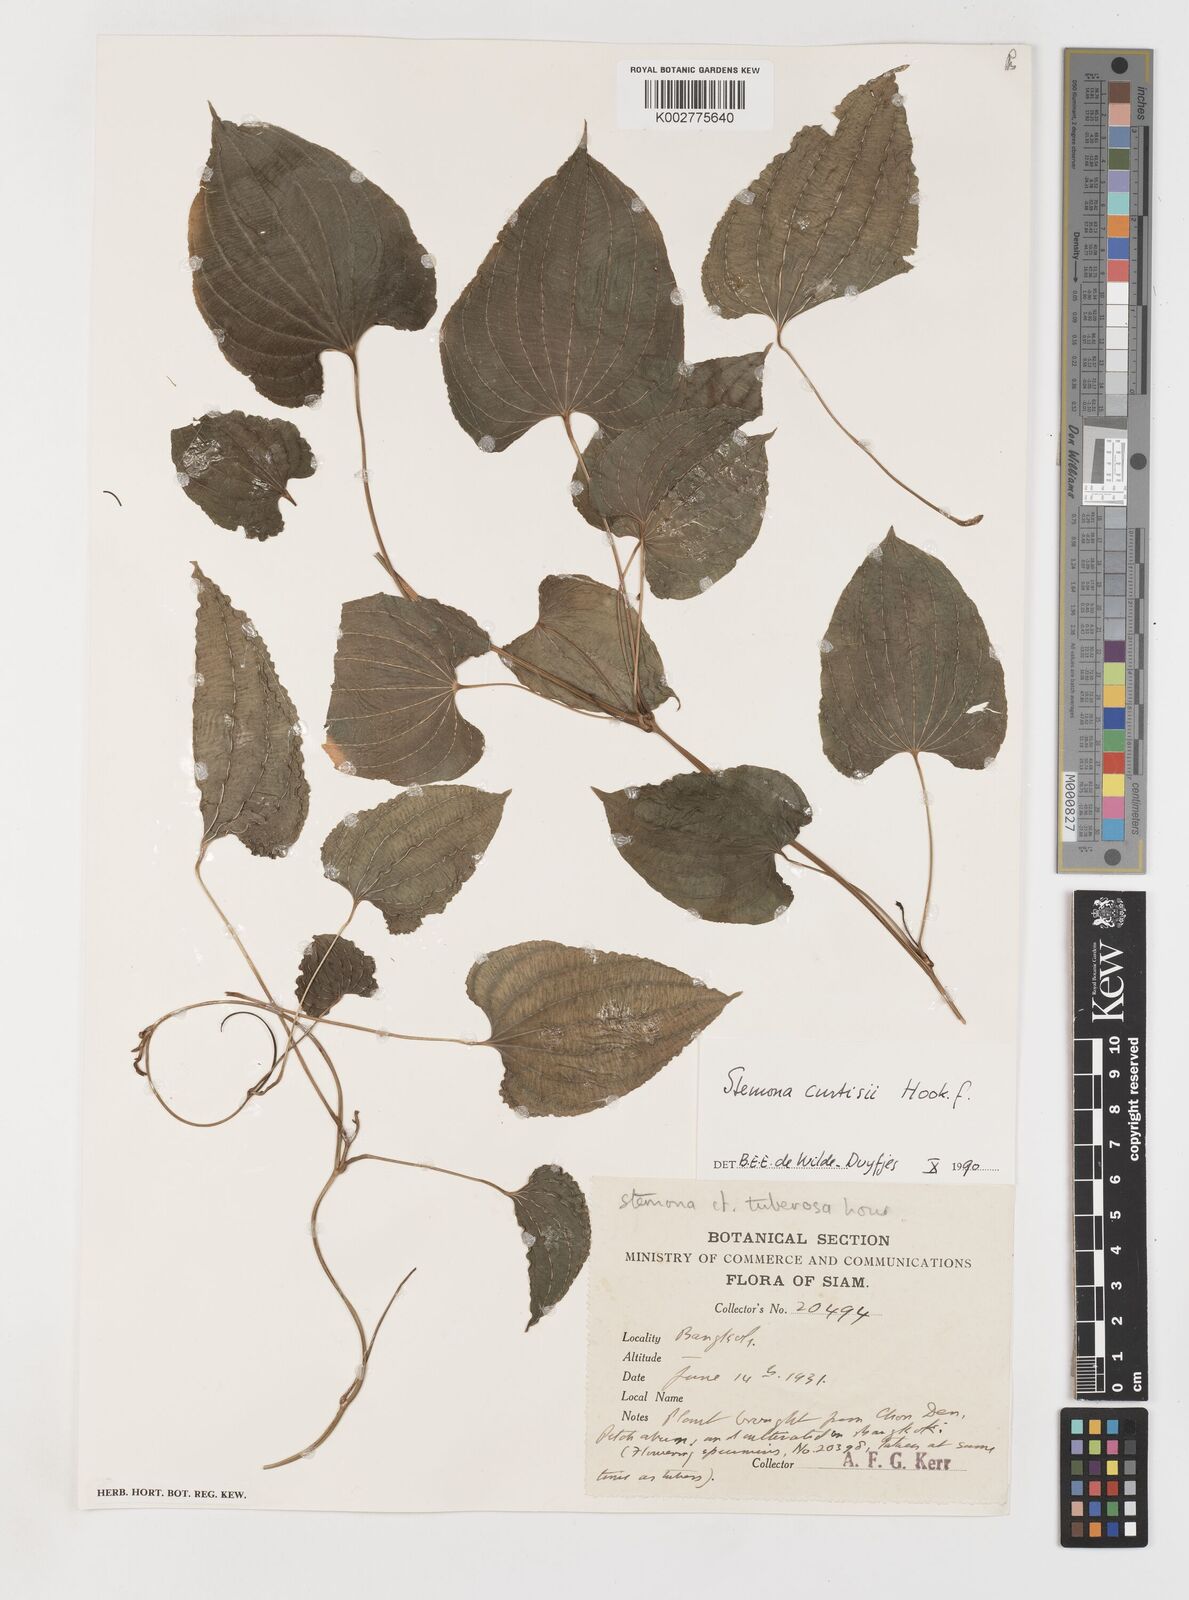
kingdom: Plantae
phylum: Tracheophyta
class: Liliopsida
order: Pandanales
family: Stemonaceae
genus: Stemona
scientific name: Stemona curtisii
